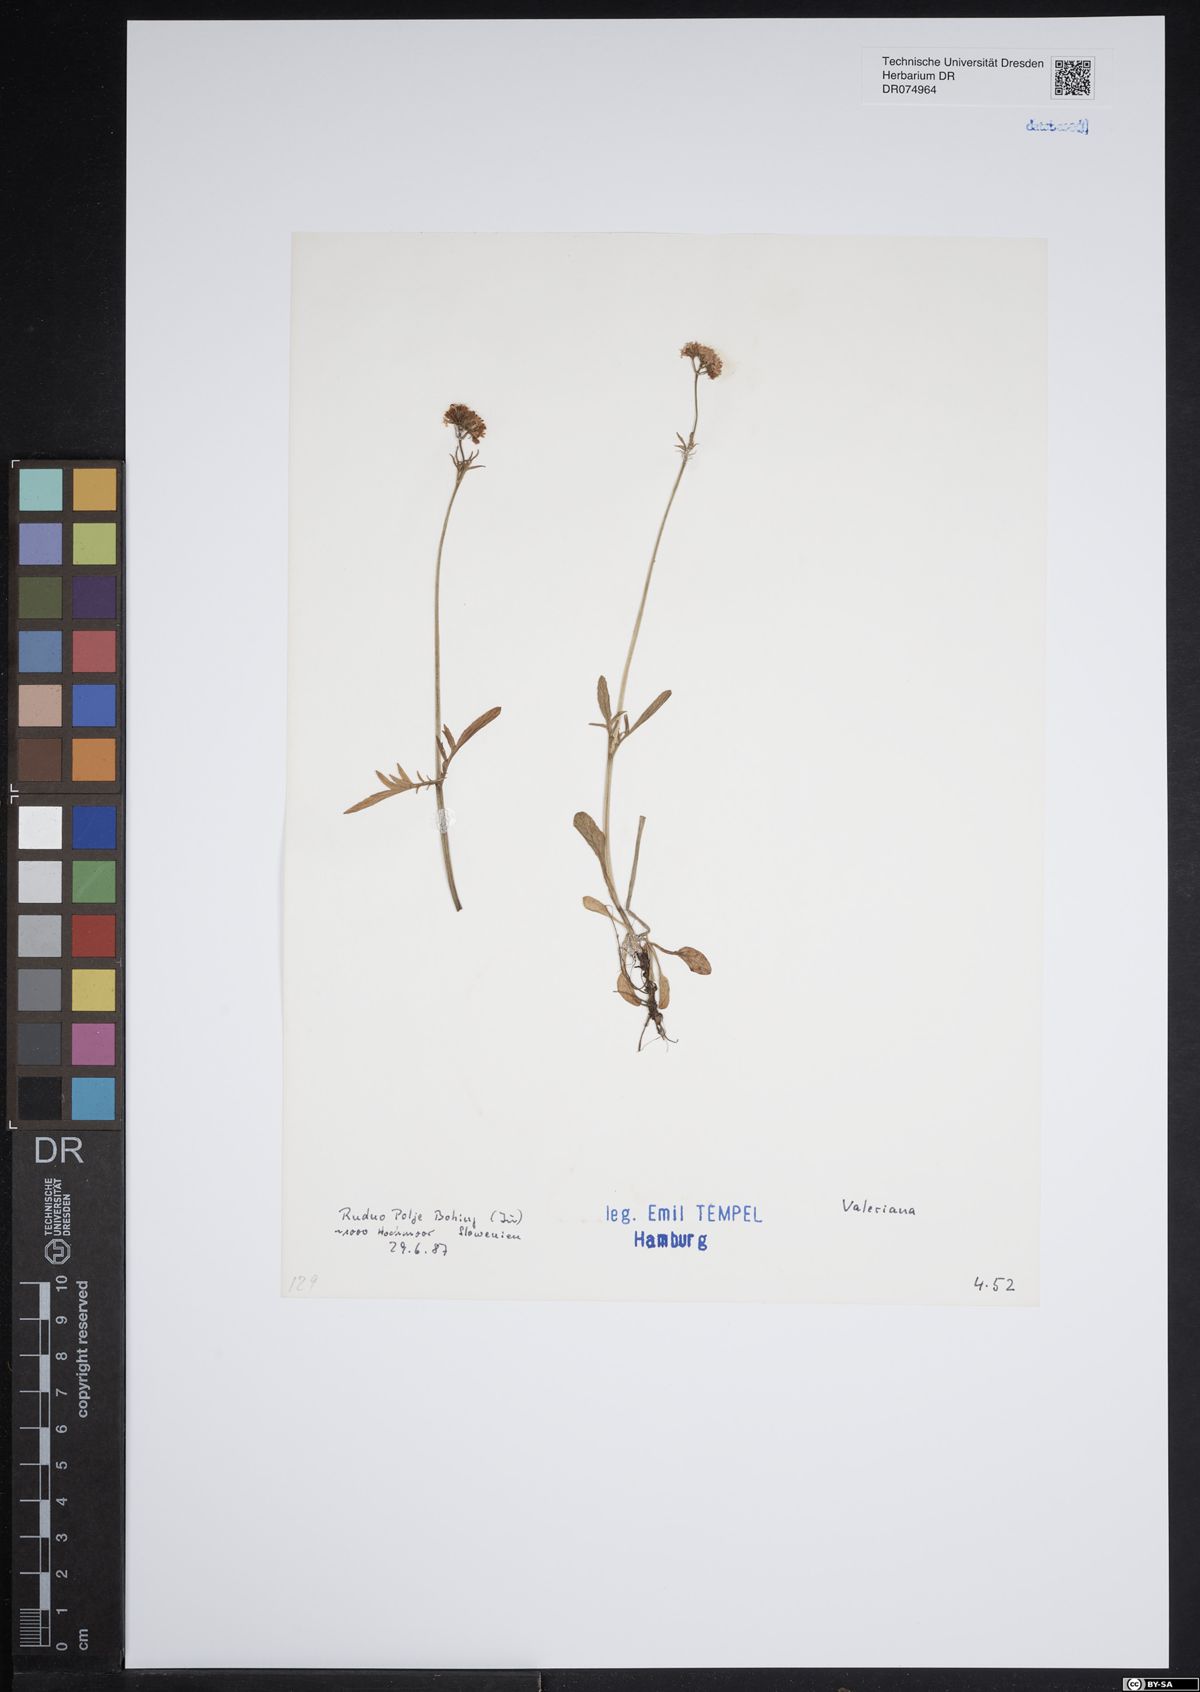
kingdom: Plantae
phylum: Tracheophyta
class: Magnoliopsida
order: Dipsacales
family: Caprifoliaceae
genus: Valeriana
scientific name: Valeriana
